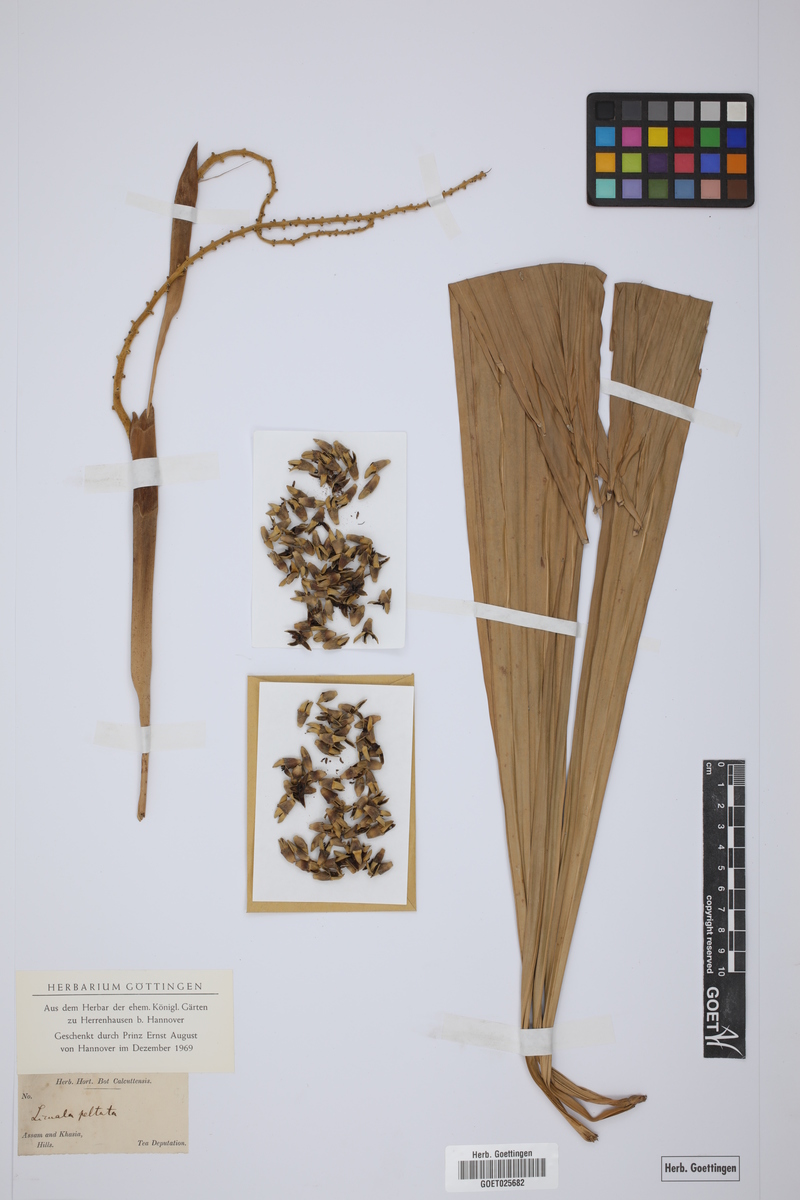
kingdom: Plantae
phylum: Tracheophyta
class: Liliopsida
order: Arecales
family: Arecaceae
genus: Licuala
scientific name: Licuala peltata
